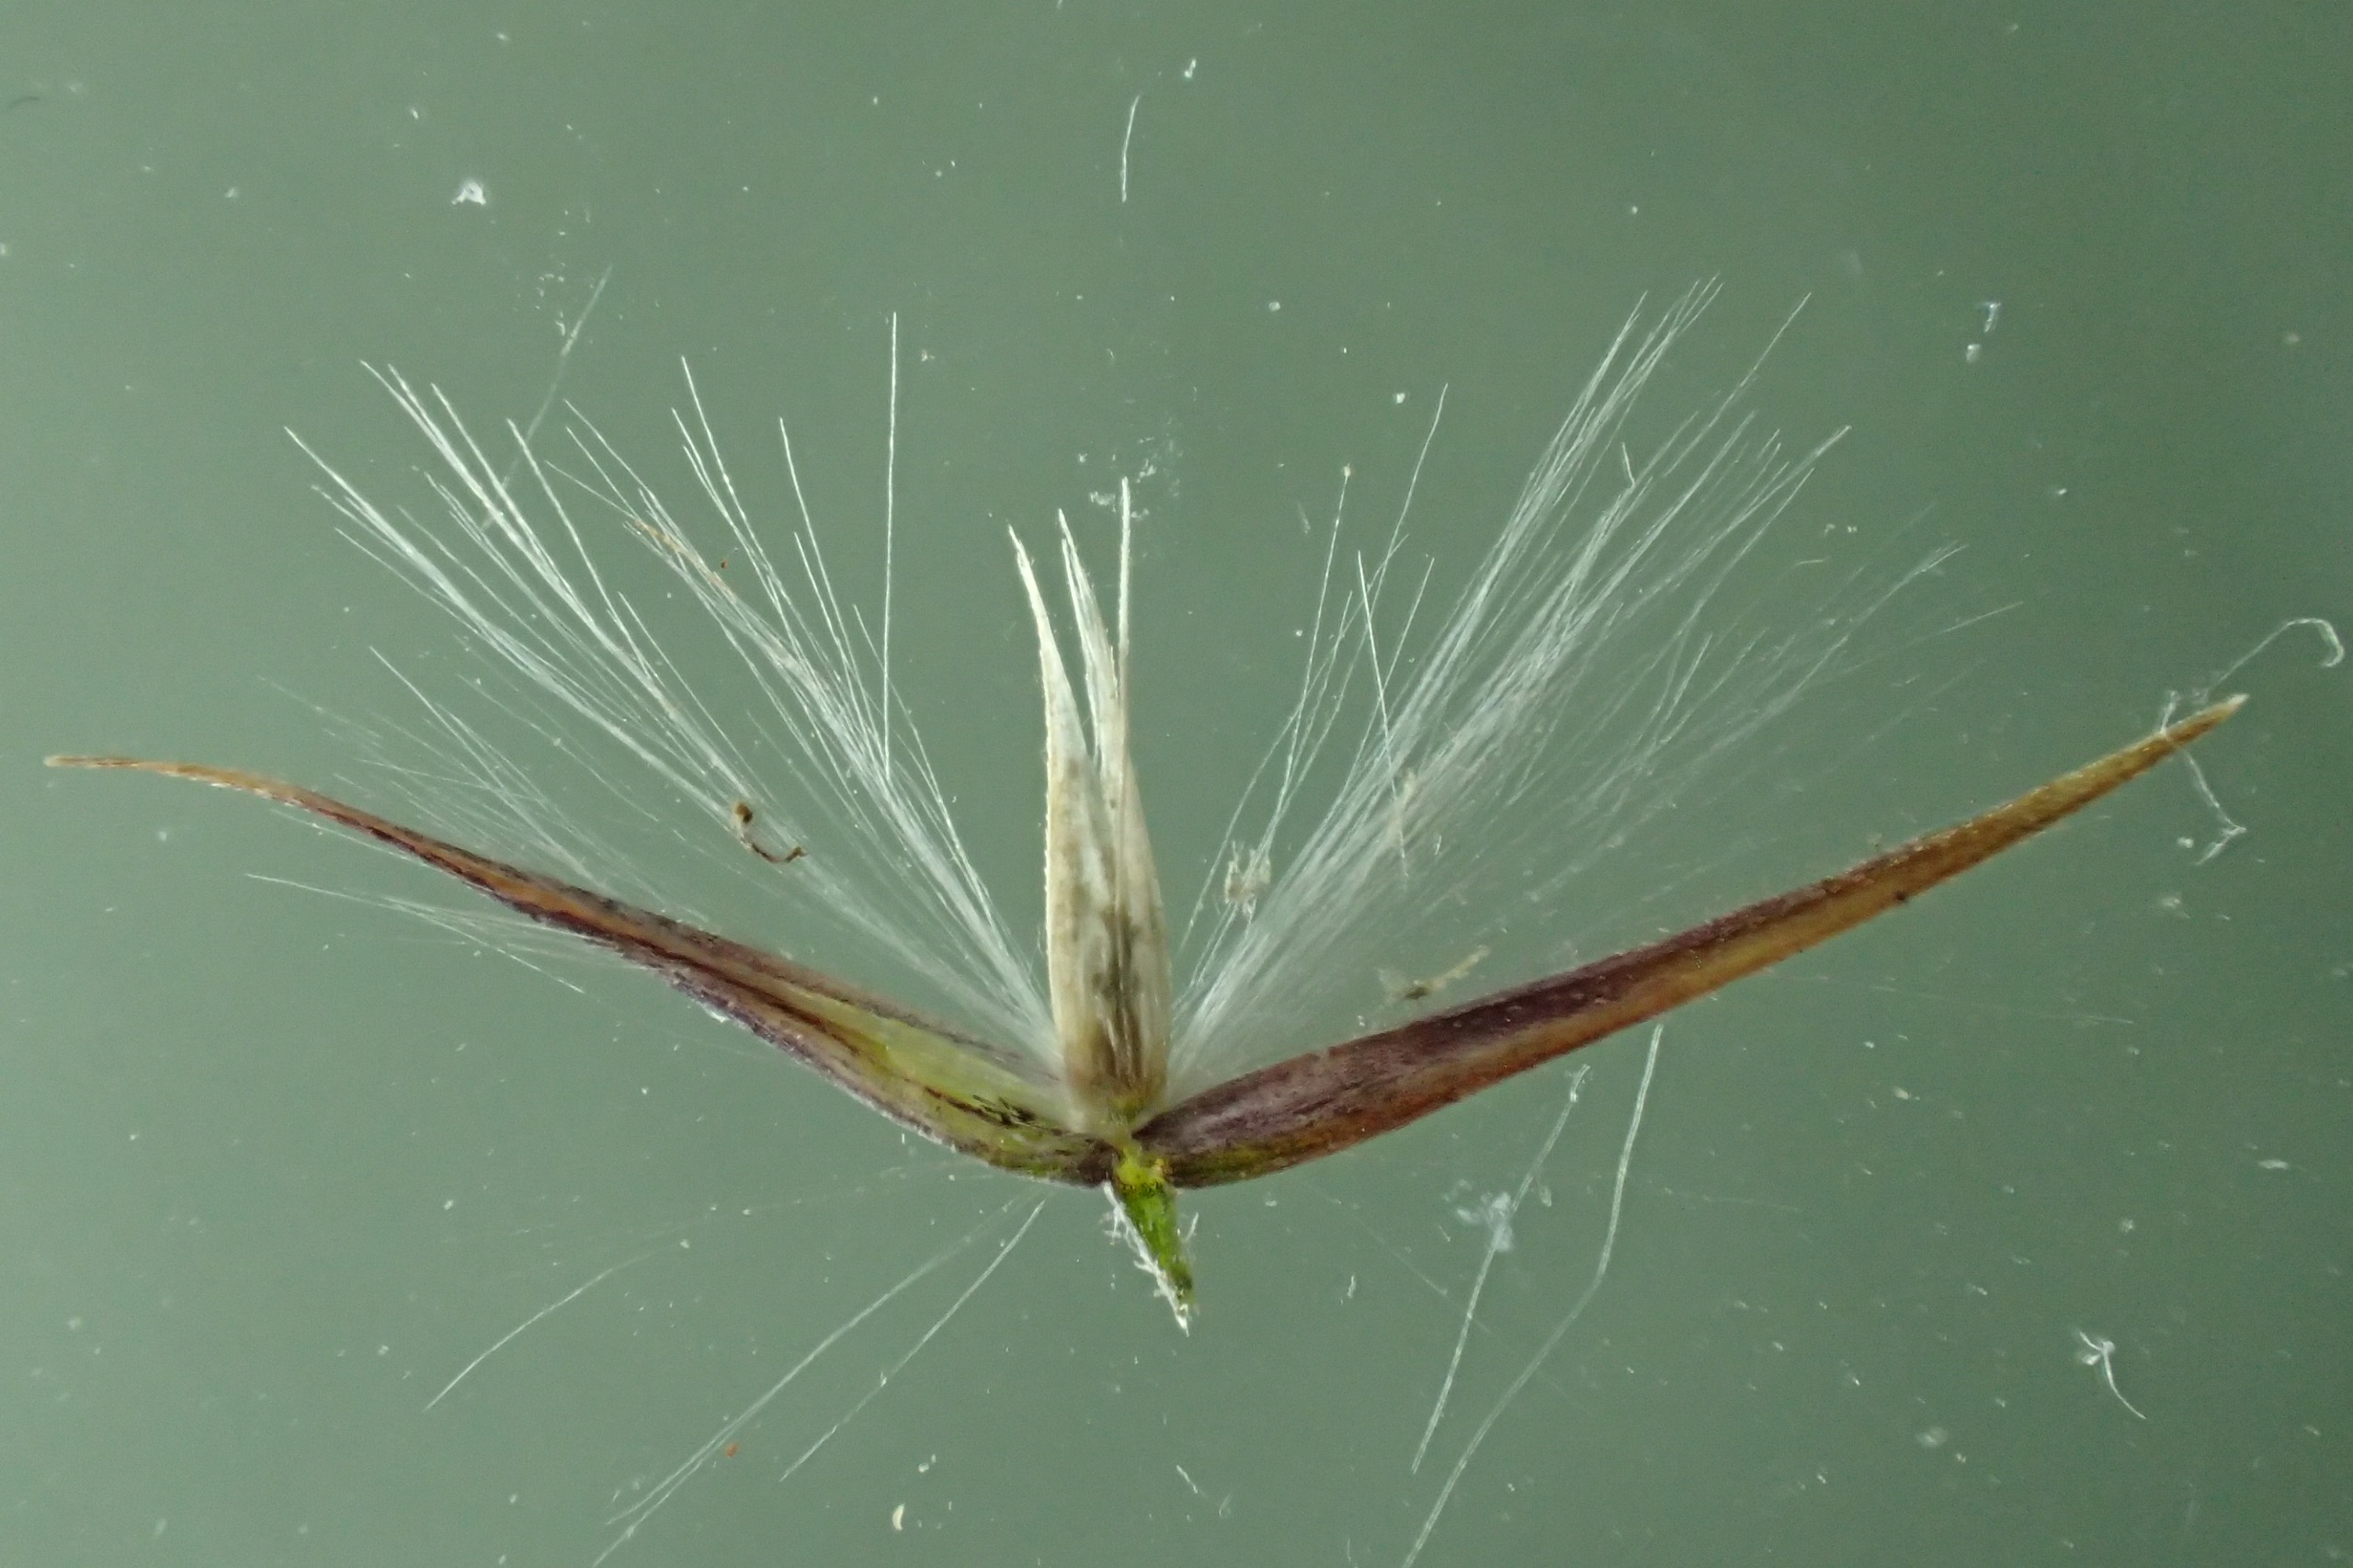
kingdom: Plantae
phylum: Tracheophyta
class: Liliopsida
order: Poales
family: Poaceae
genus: Calamagrostis
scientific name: Calamagrostis epigejos
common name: Bjerg-rørhvene
